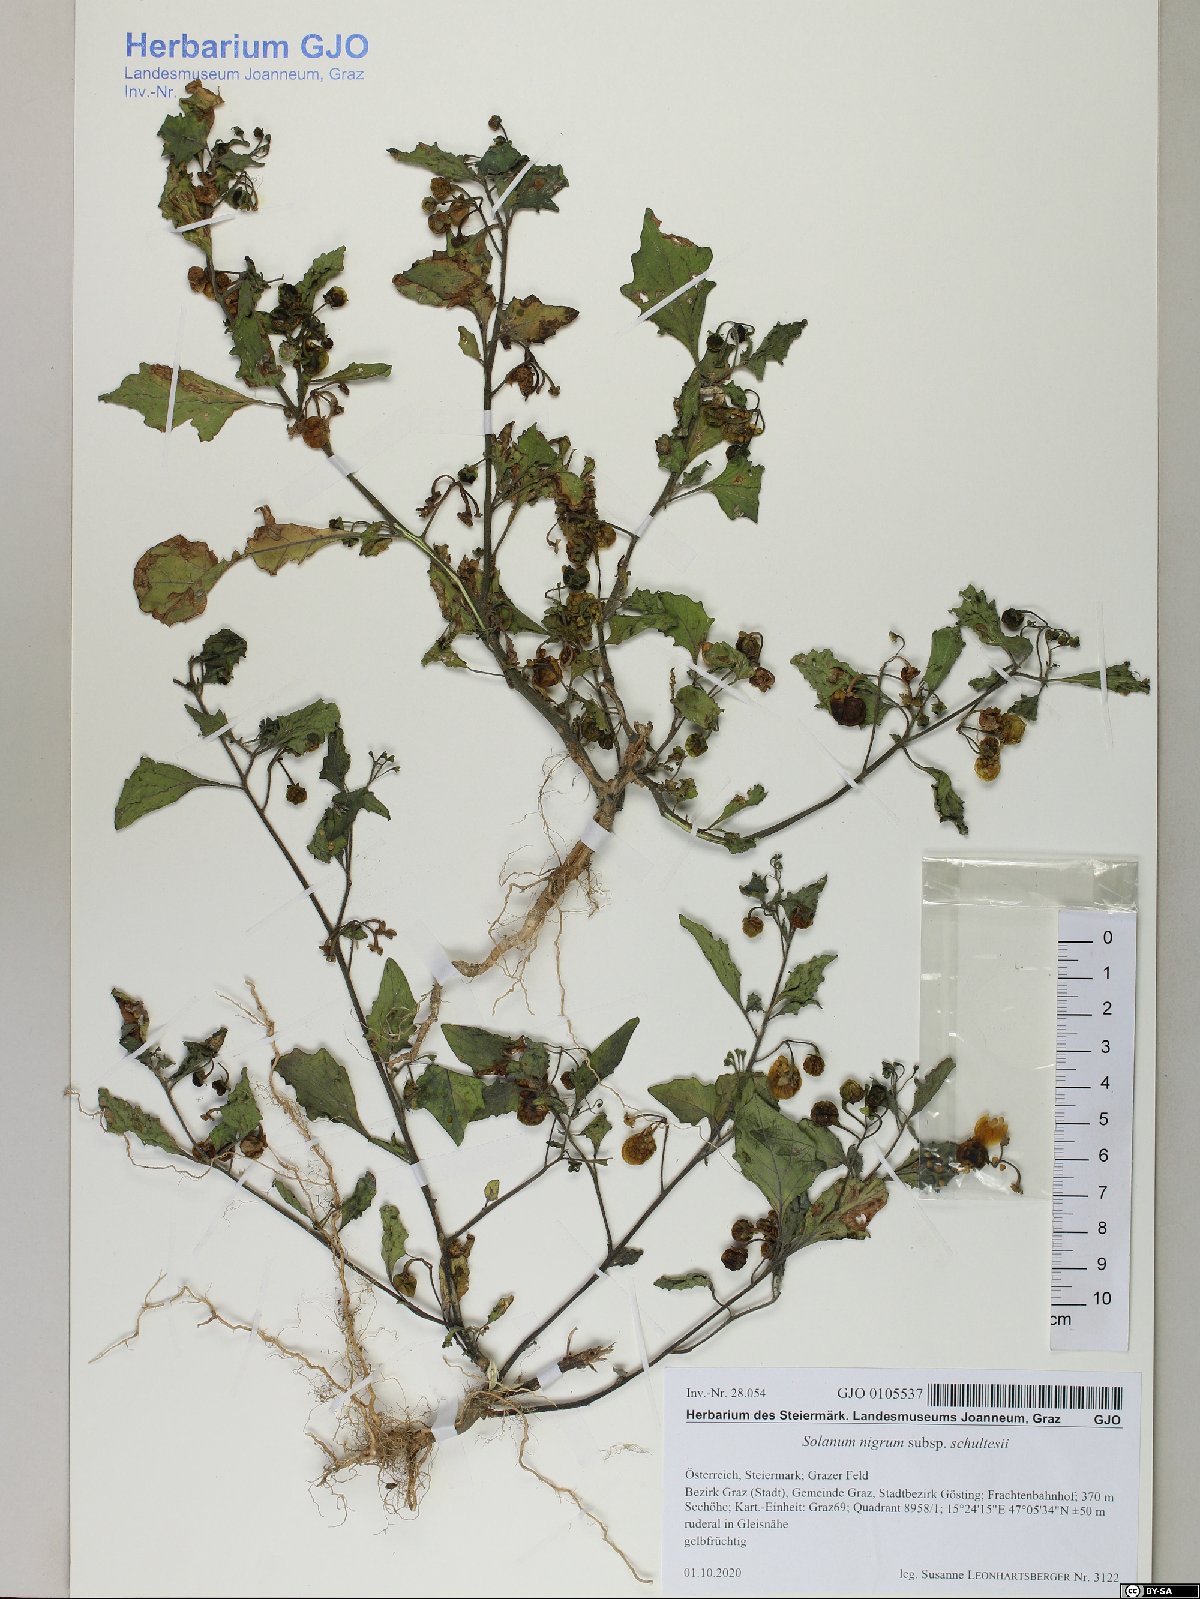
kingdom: Plantae
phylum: Tracheophyta
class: Magnoliopsida
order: Solanales
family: Solanaceae
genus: Solanum
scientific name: Solanum decipiens
